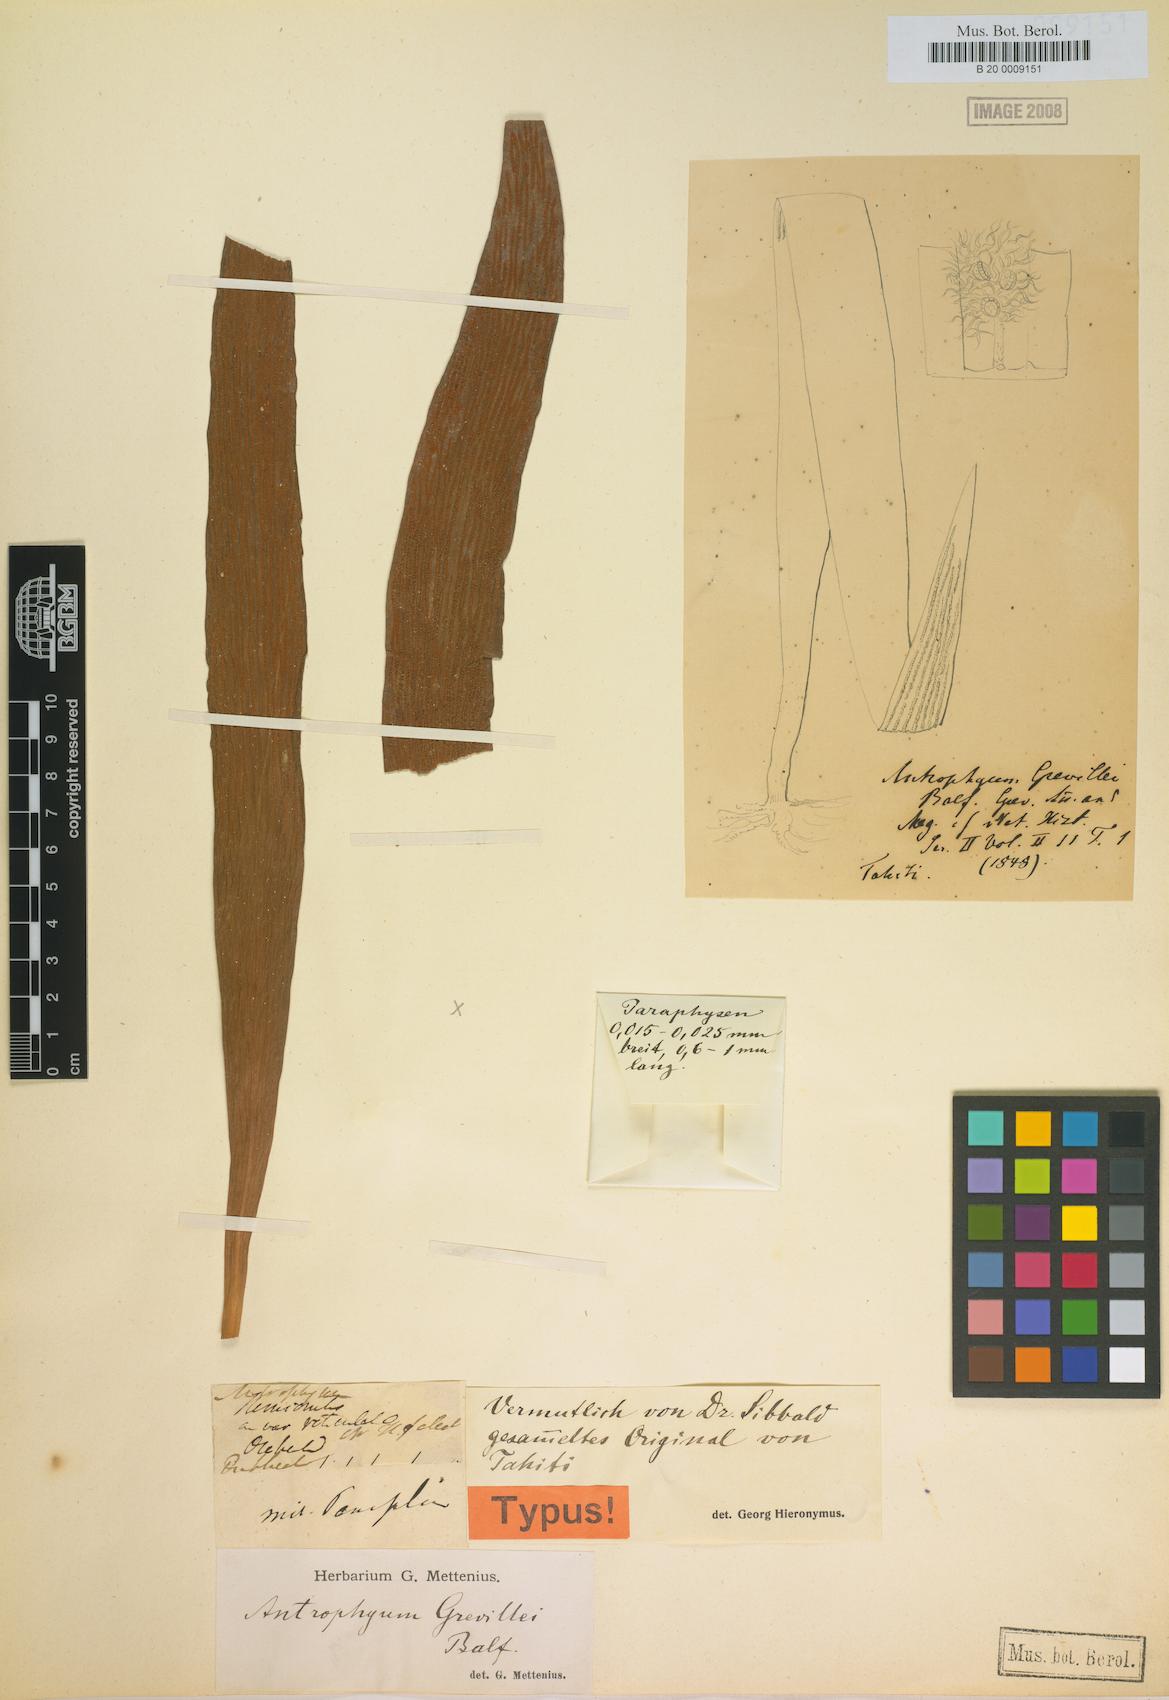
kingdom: Plantae
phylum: Tracheophyta
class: Polypodiopsida
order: Polypodiales
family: Pteridaceae
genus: Antrophyum
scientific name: Antrophyum reticulatum
